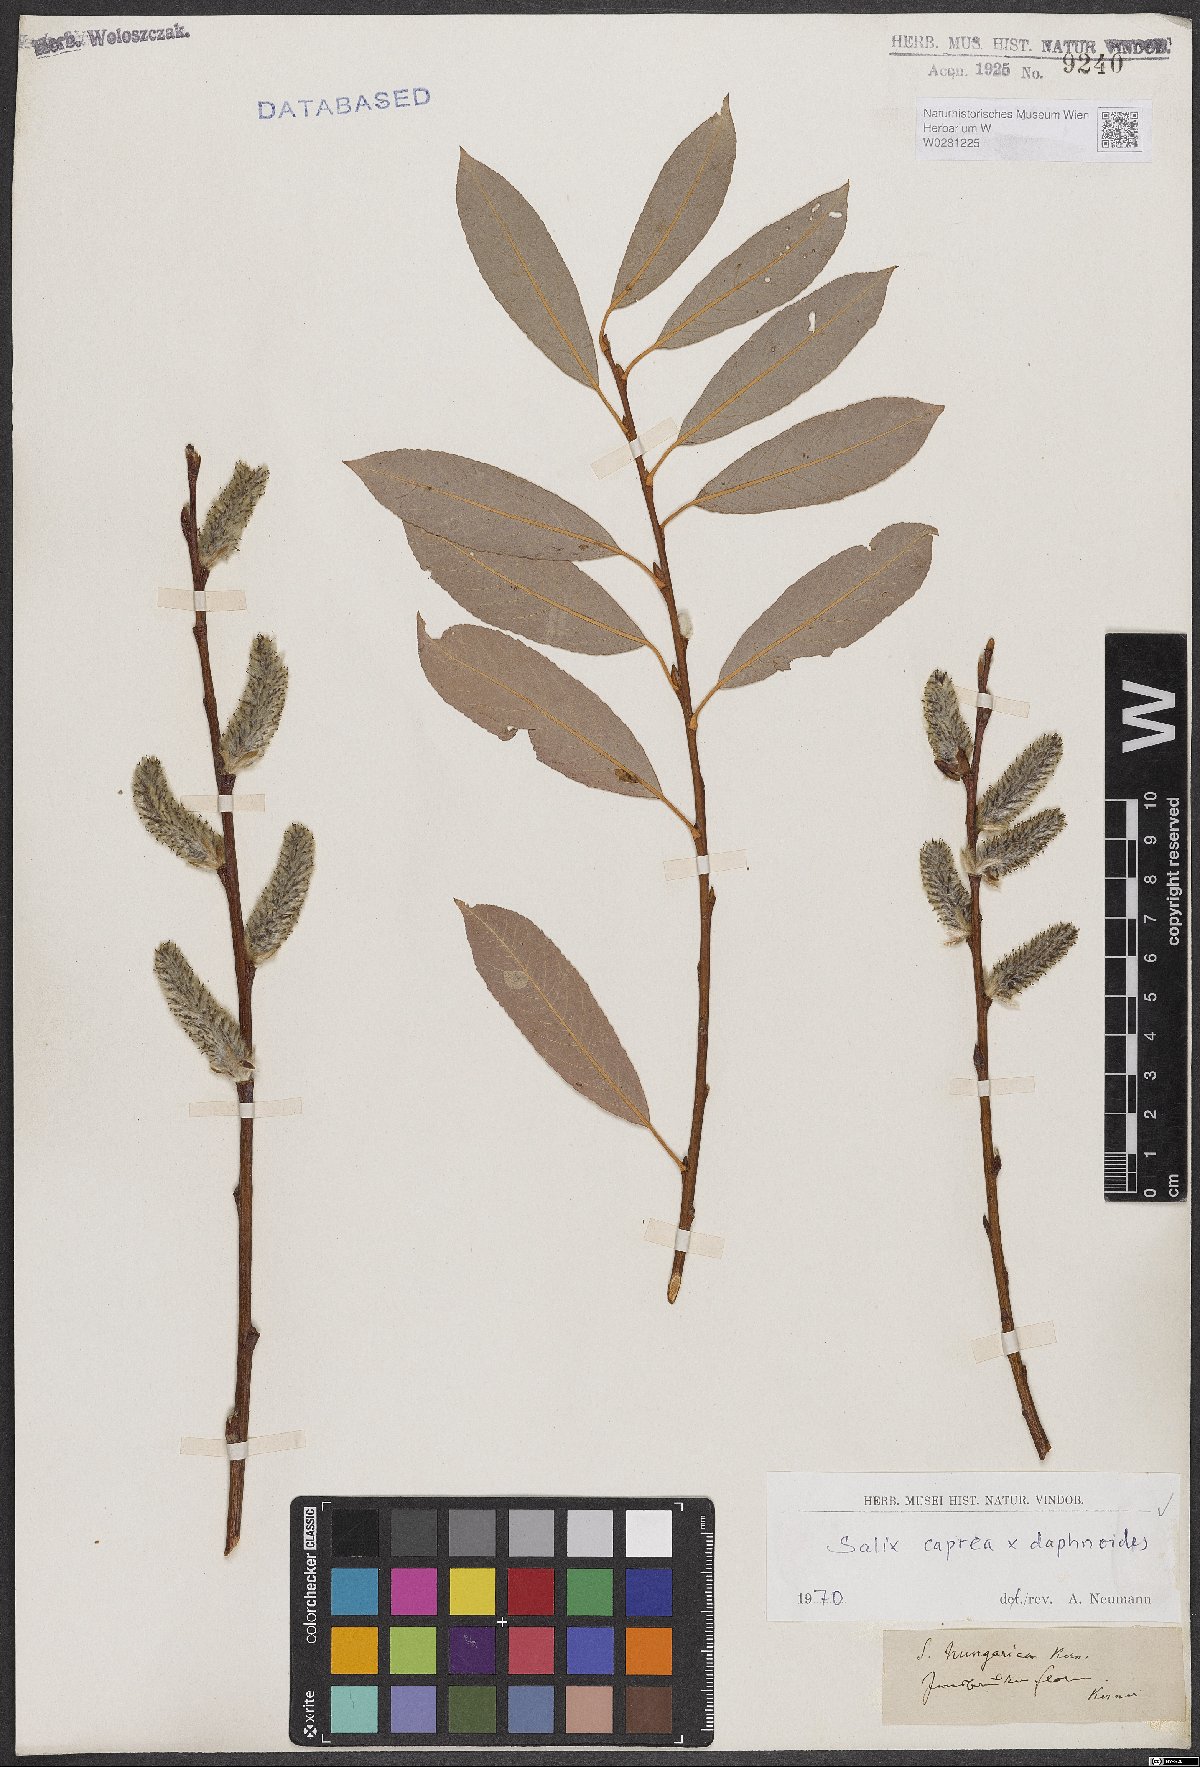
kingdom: Plantae
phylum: Tracheophyta
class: Magnoliopsida
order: Malpighiales
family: Salicaceae
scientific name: Salicaceae
